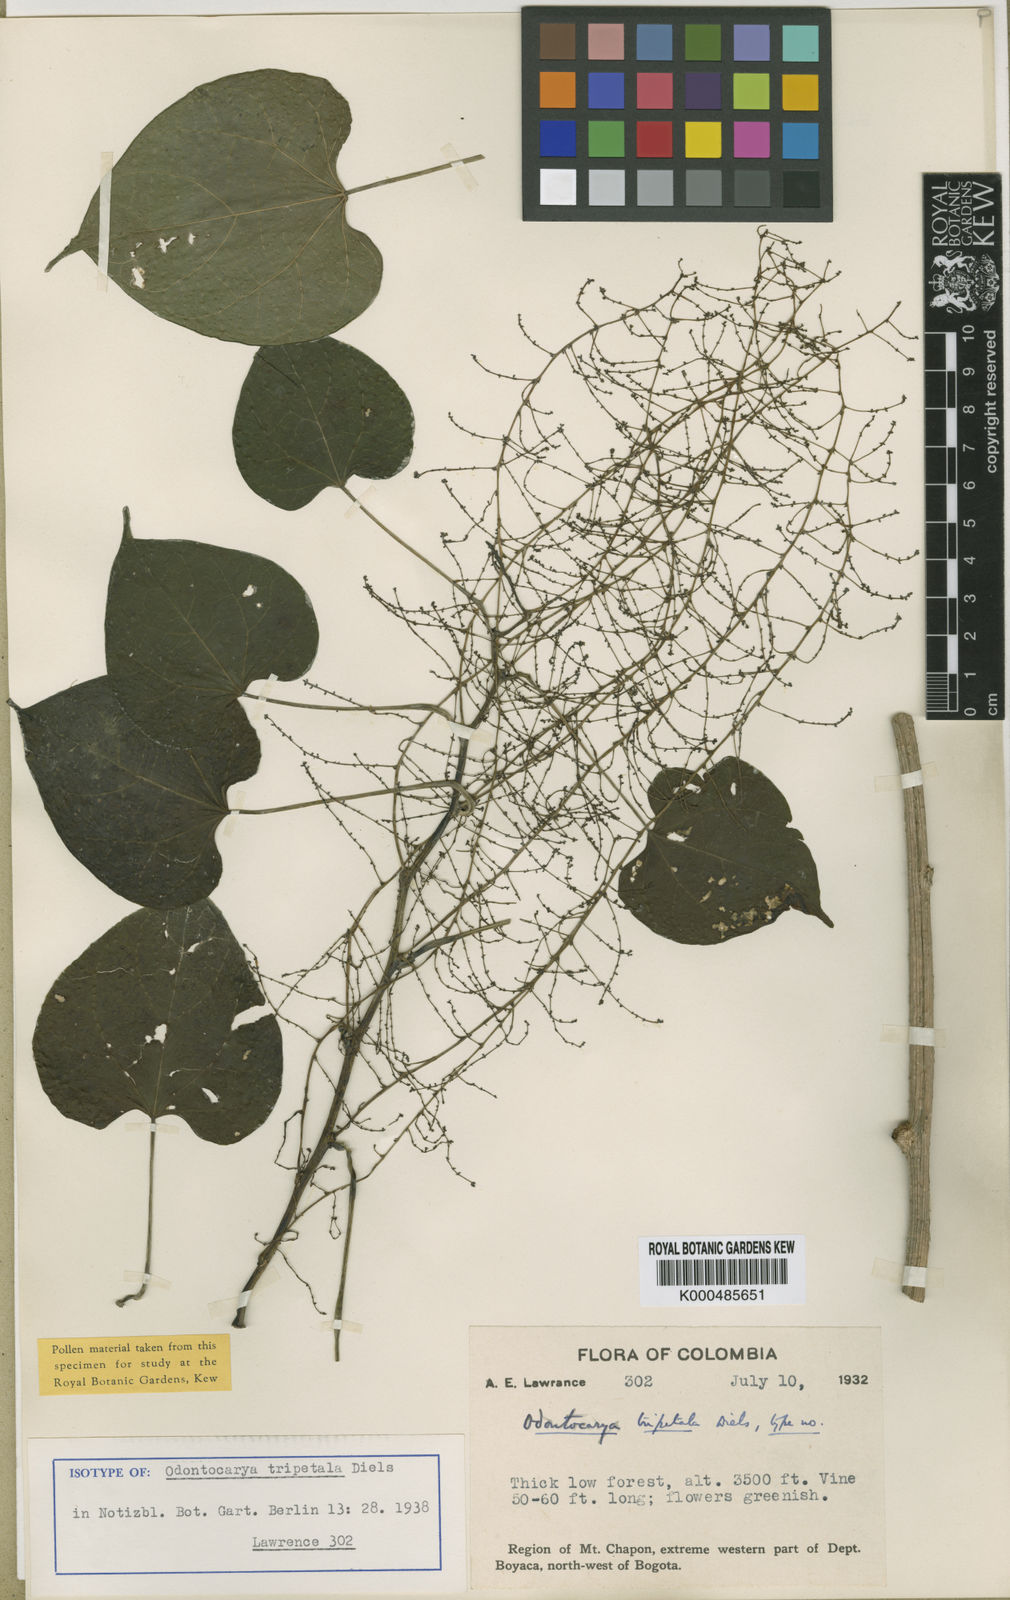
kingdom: Plantae
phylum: Tracheophyta
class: Magnoliopsida
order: Ranunculales
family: Menispermaceae
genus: Odontocarya
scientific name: Odontocarya tripetala
